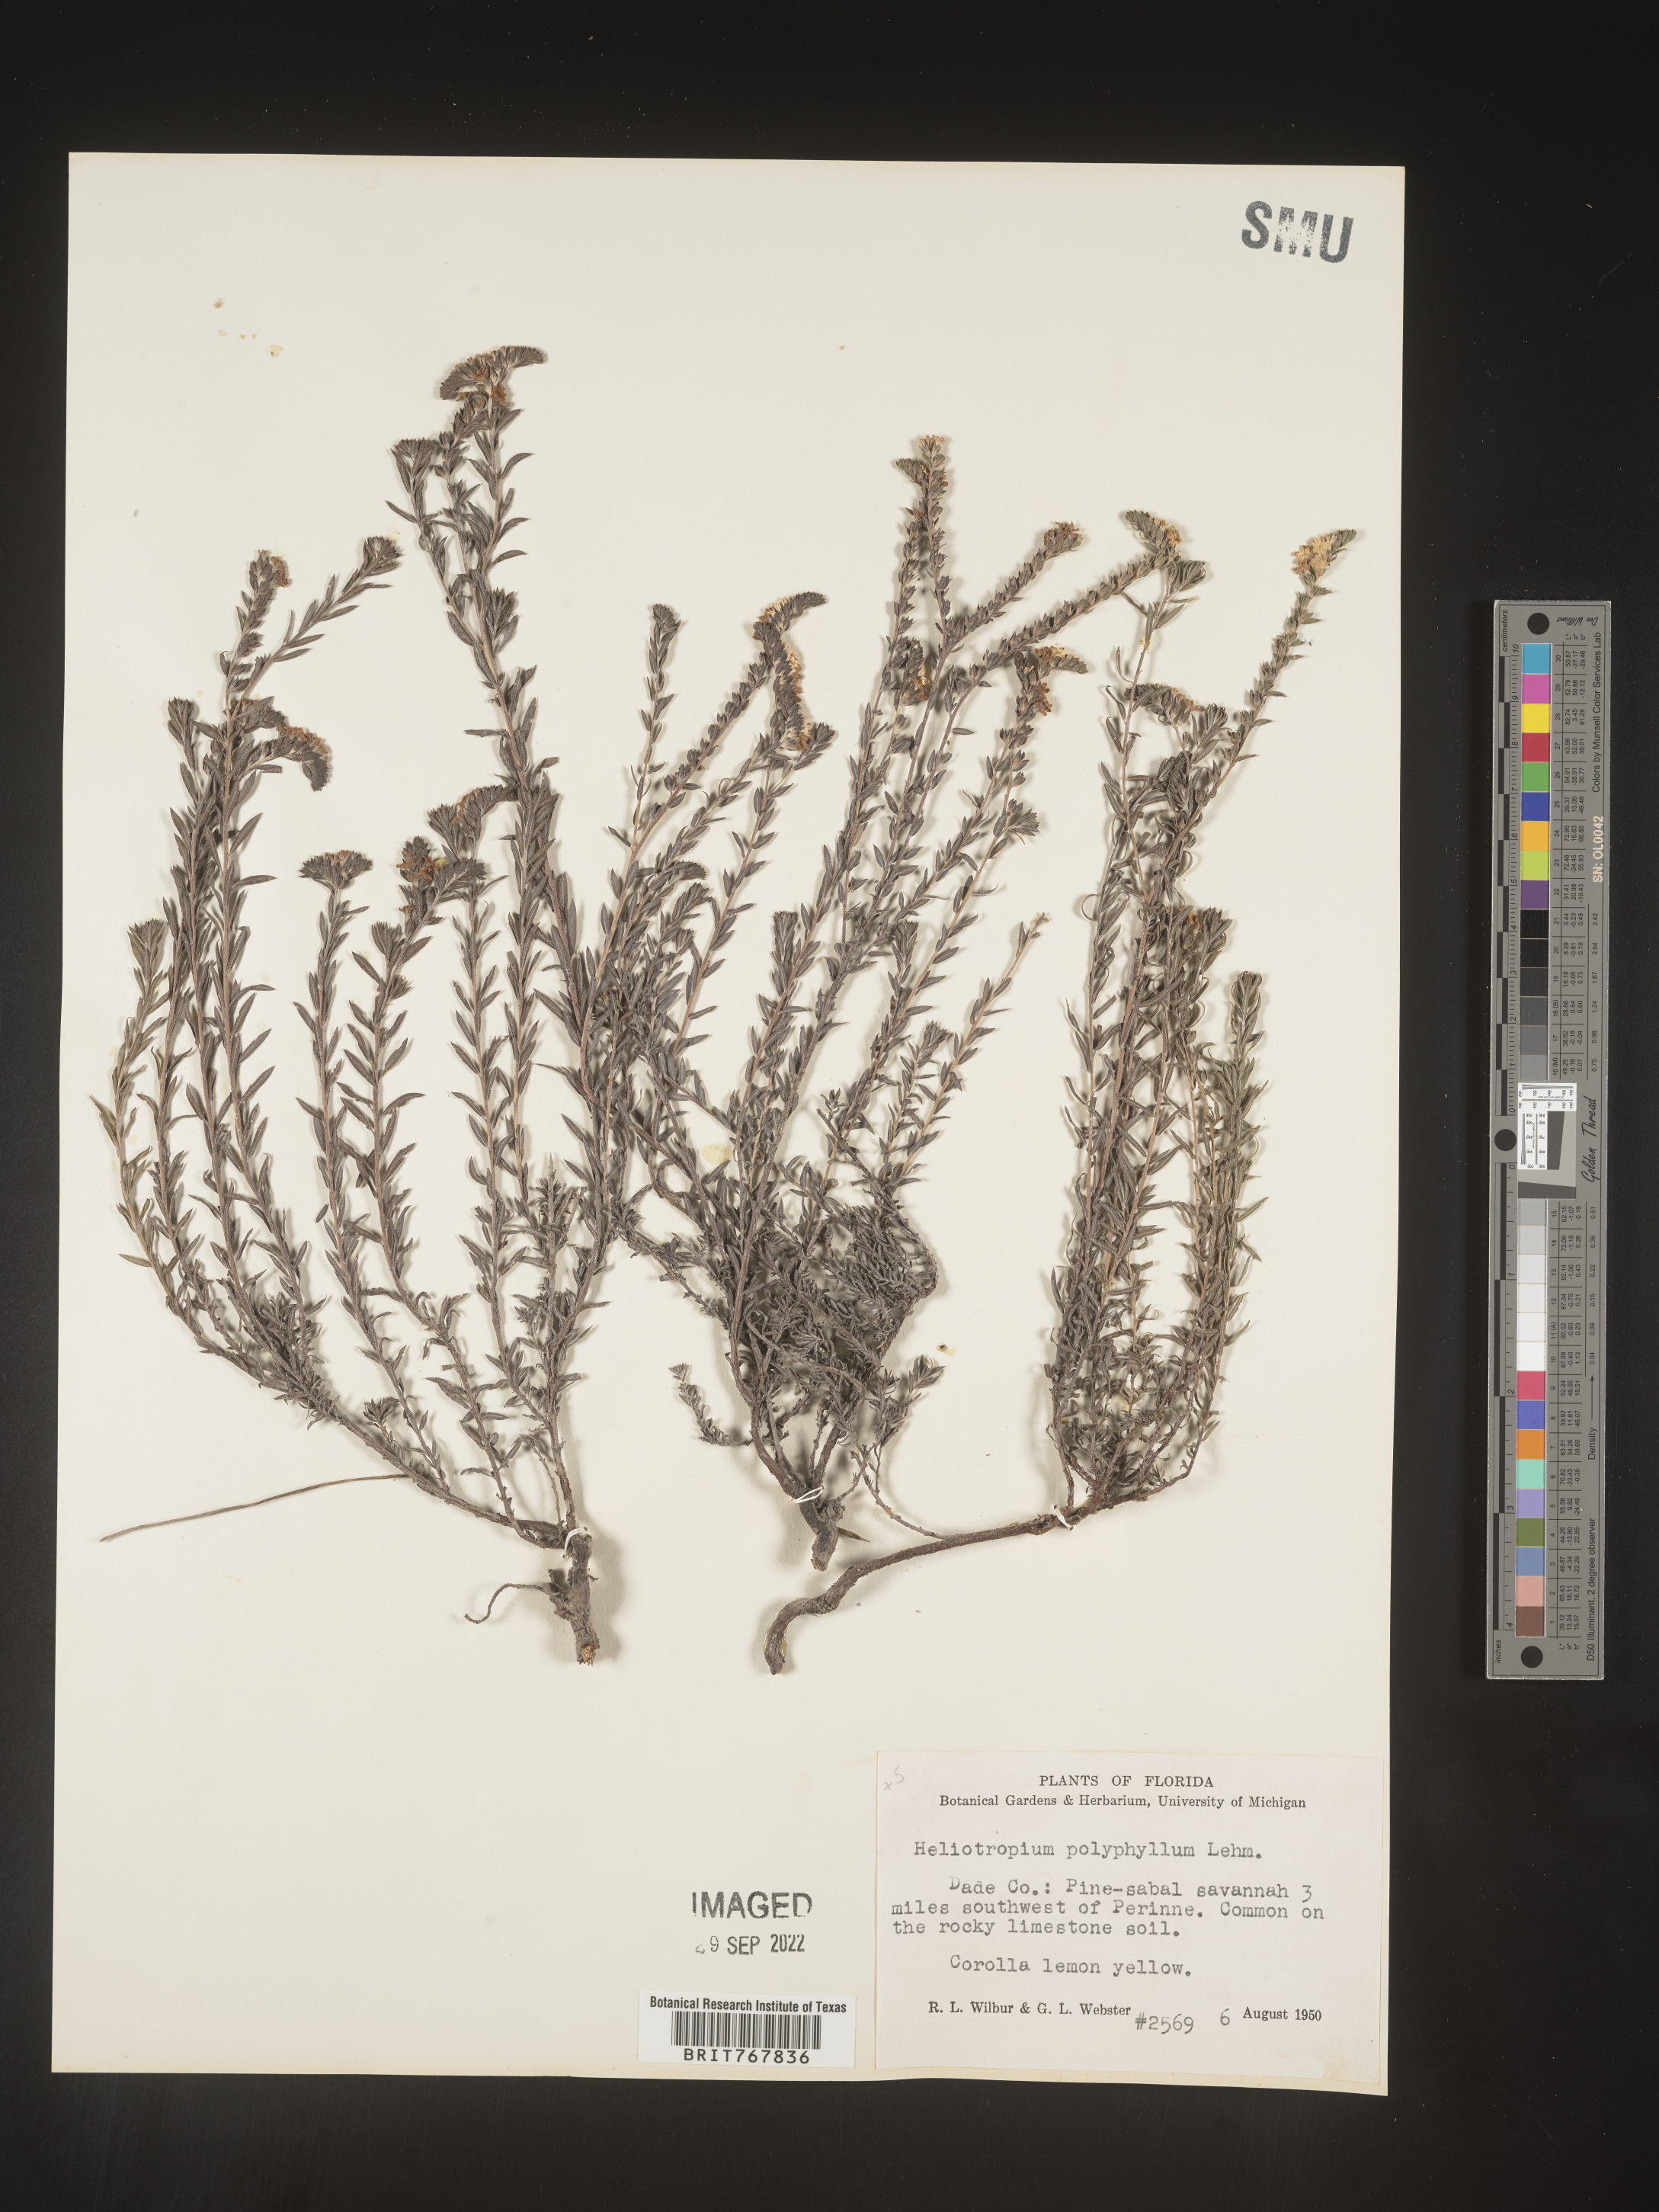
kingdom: Plantae
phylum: Tracheophyta
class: Magnoliopsida
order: Boraginales
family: Heliotropiaceae
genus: Heliotropium
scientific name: Heliotropium
